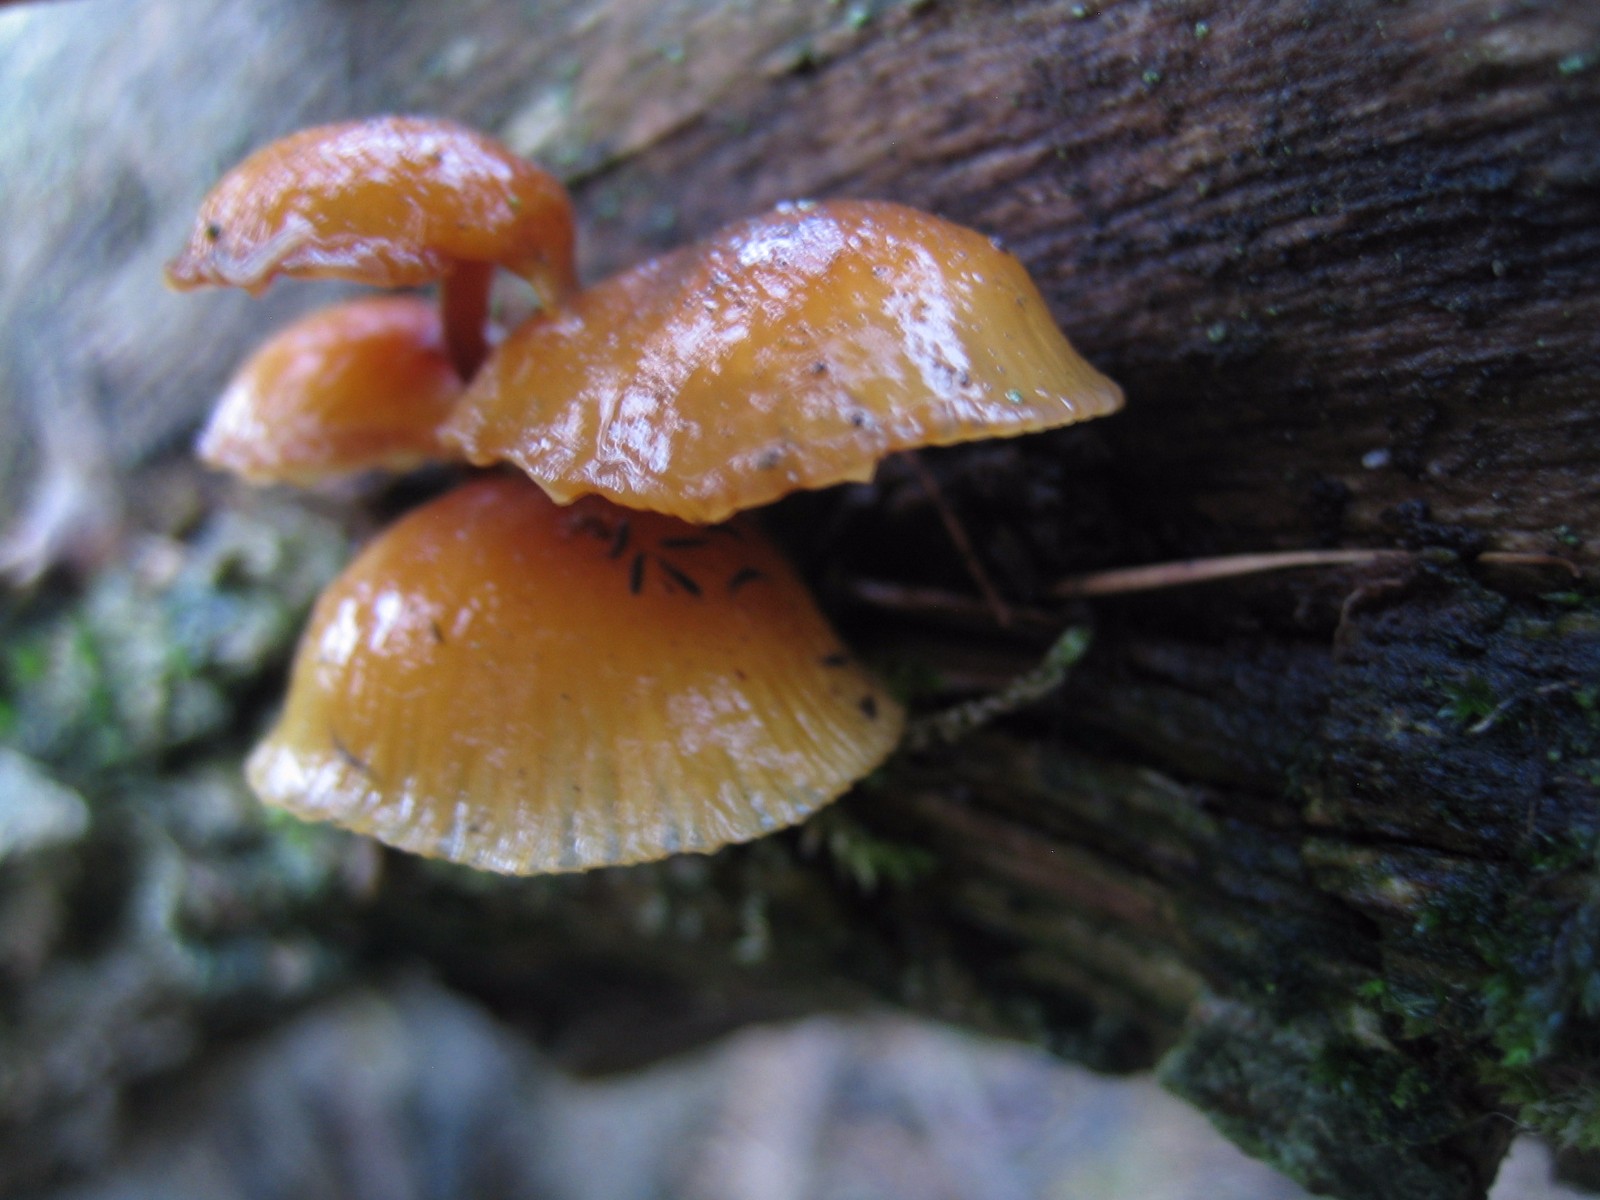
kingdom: Fungi
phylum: Basidiomycota
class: Agaricomycetes
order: Agaricales
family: Physalacriaceae
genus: Flammulina
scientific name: Flammulina
